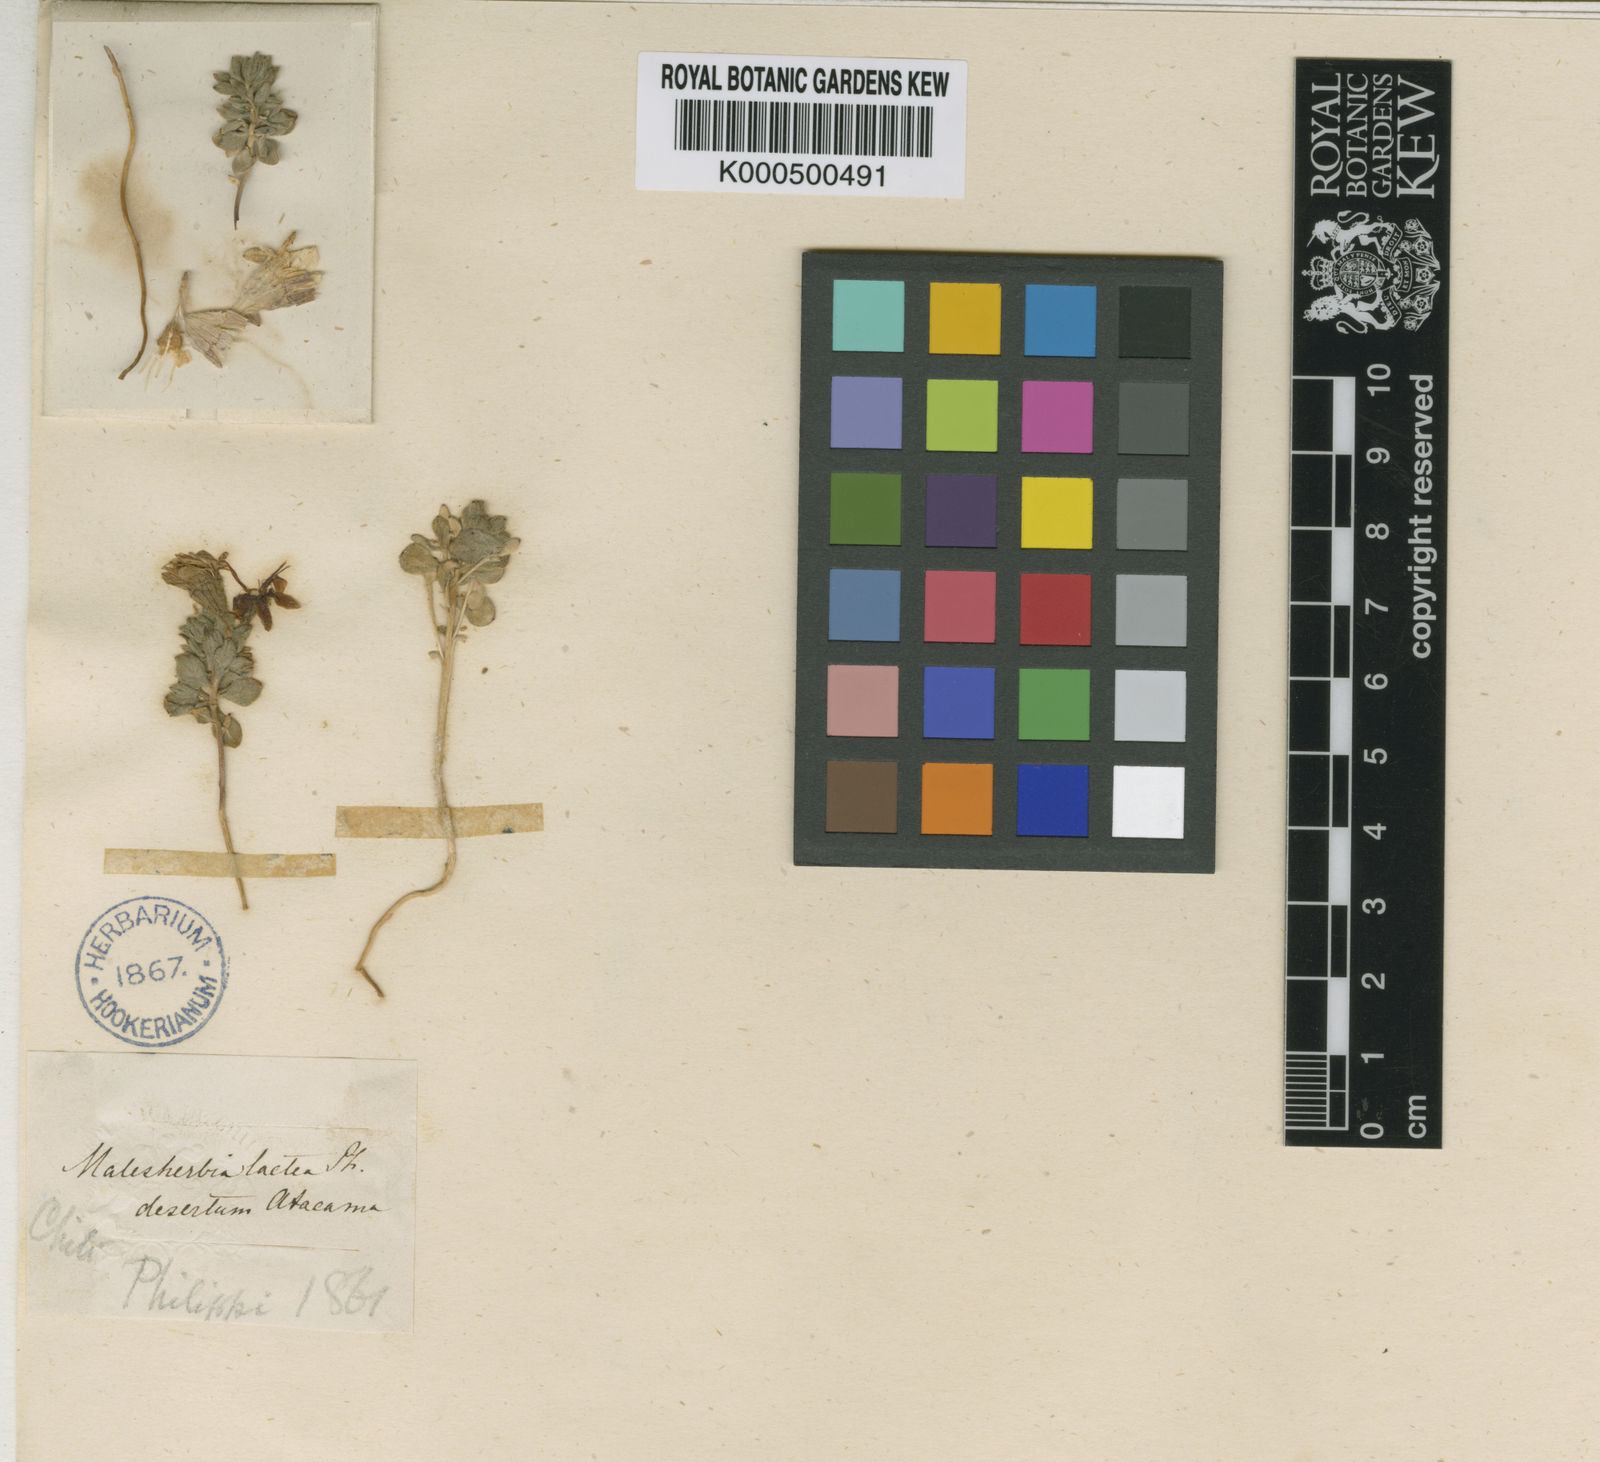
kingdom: Plantae
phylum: Tracheophyta
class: Magnoliopsida
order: Malpighiales
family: Malesherbiaceae
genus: Malesherbia
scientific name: Malesherbia lactea
